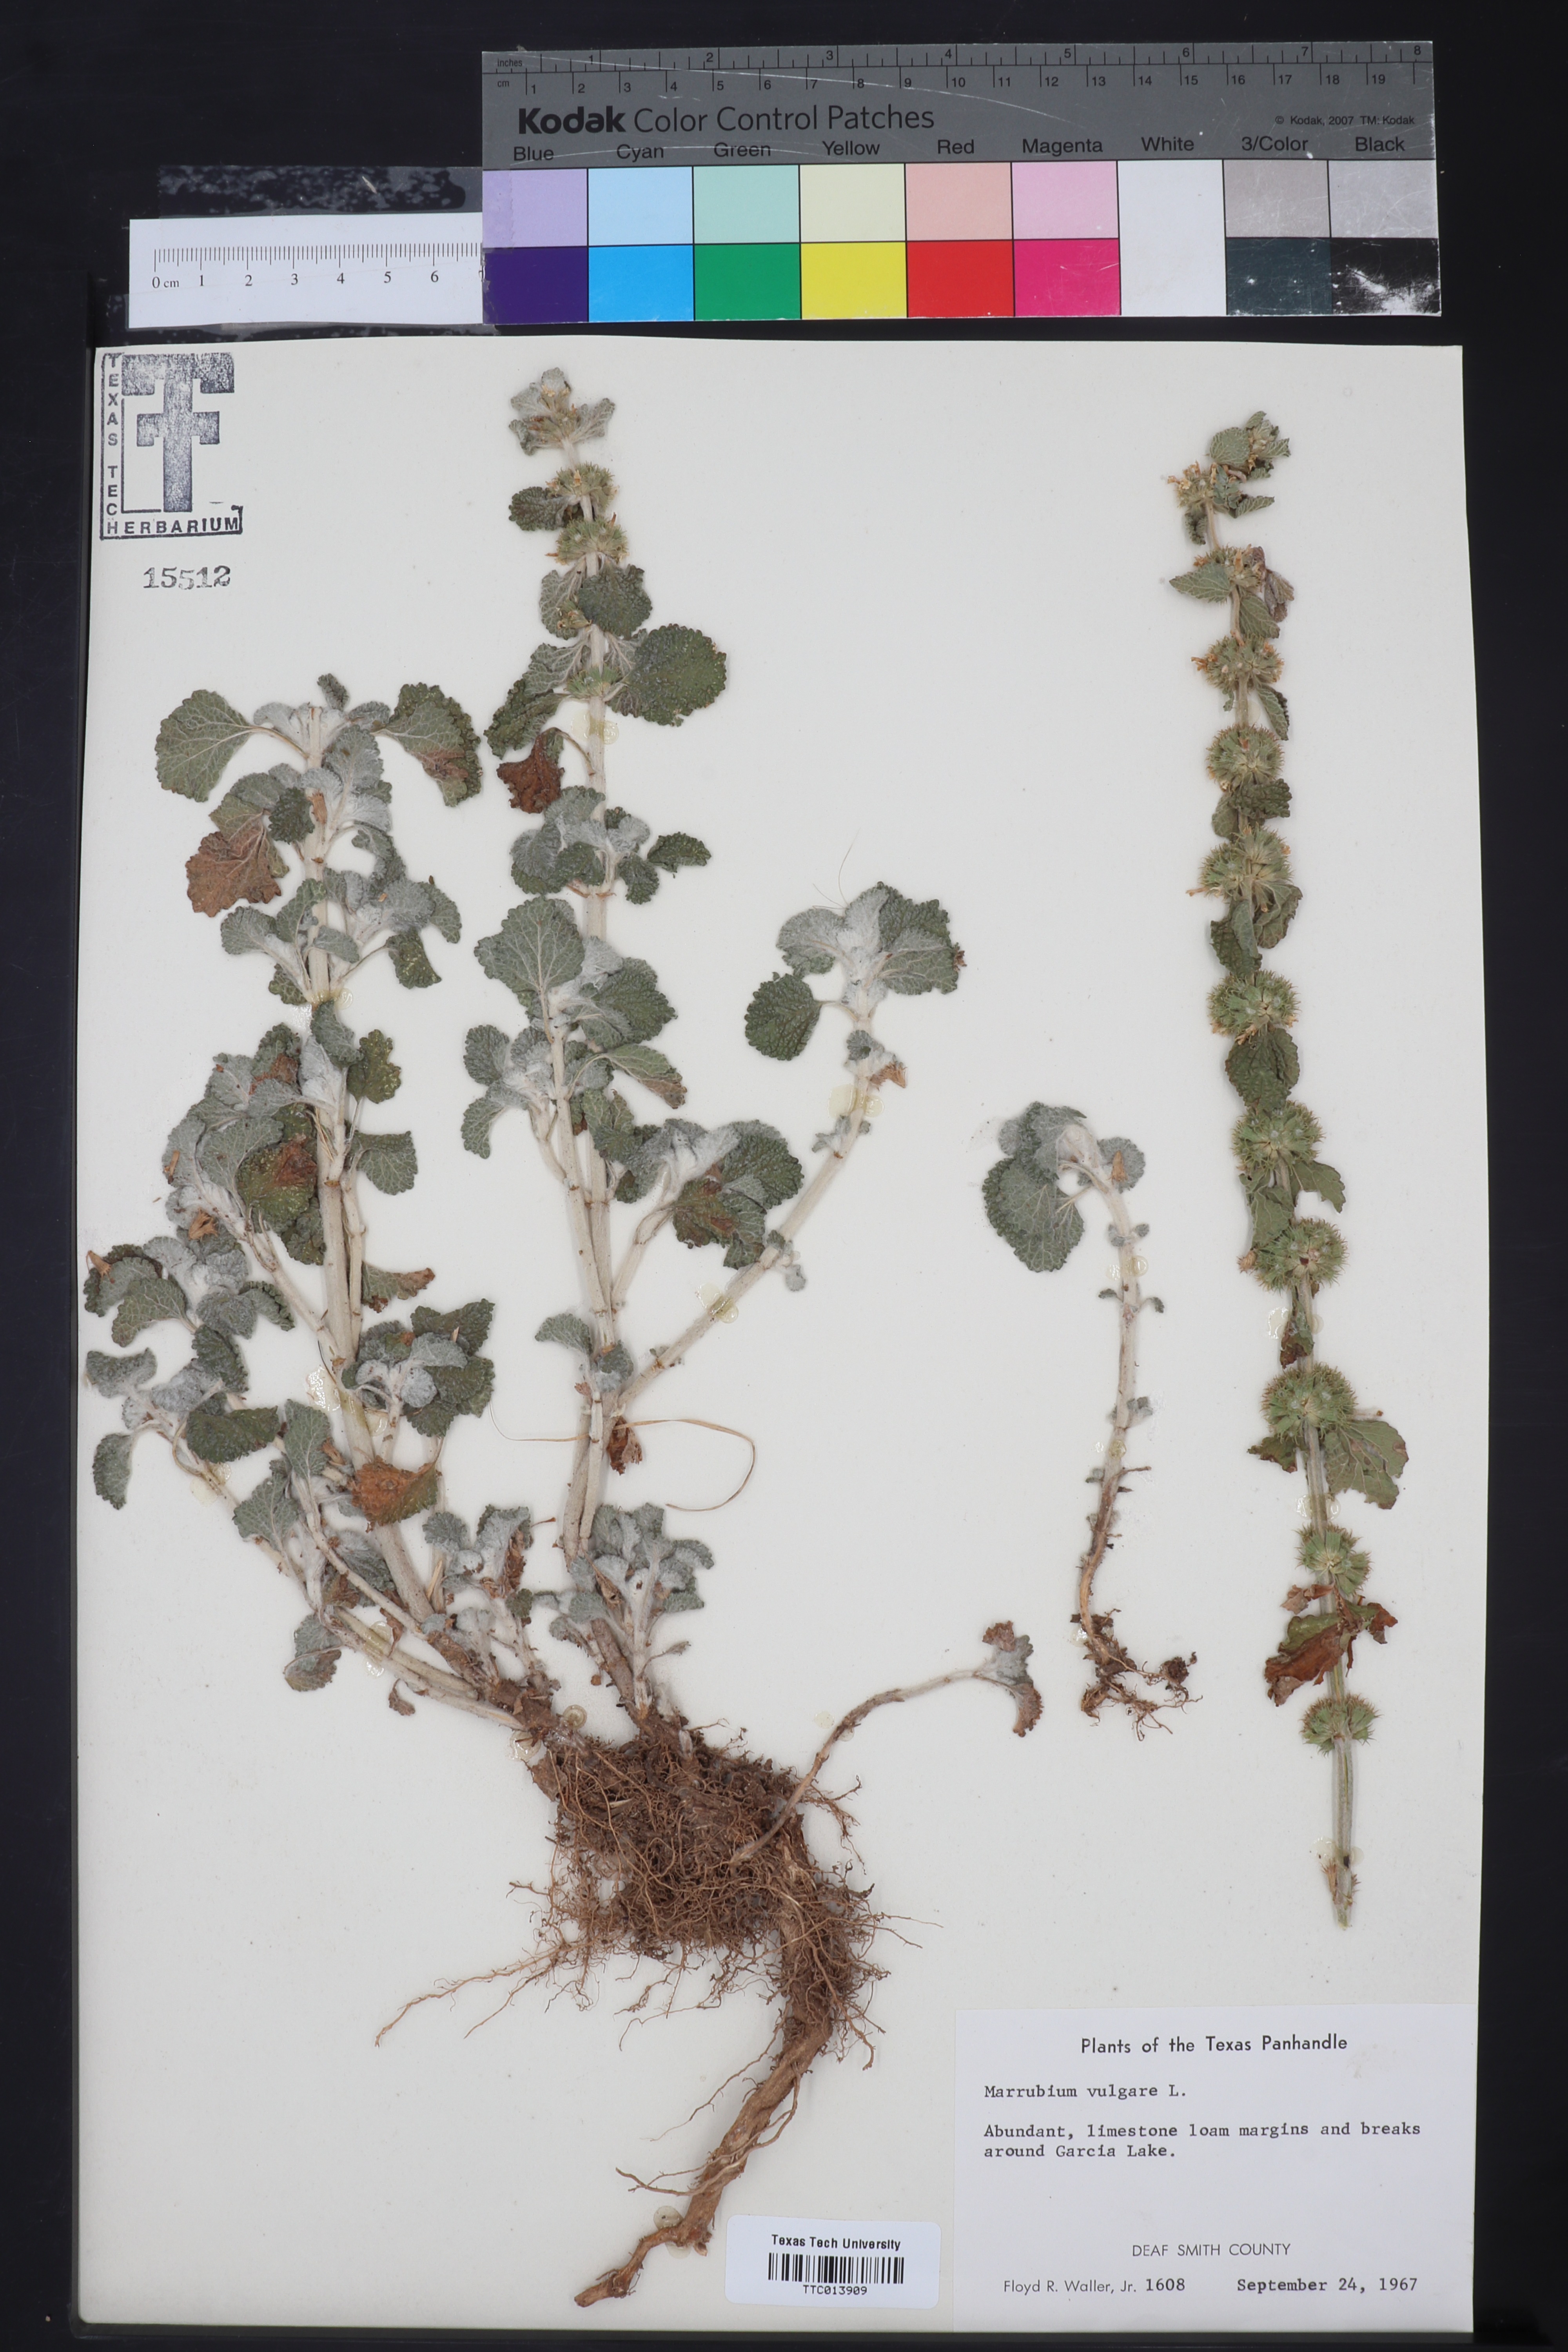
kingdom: Plantae
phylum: Tracheophyta
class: Magnoliopsida
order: Lamiales
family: Lamiaceae
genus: Marrubium
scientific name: Marrubium vulgare
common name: Horehound
